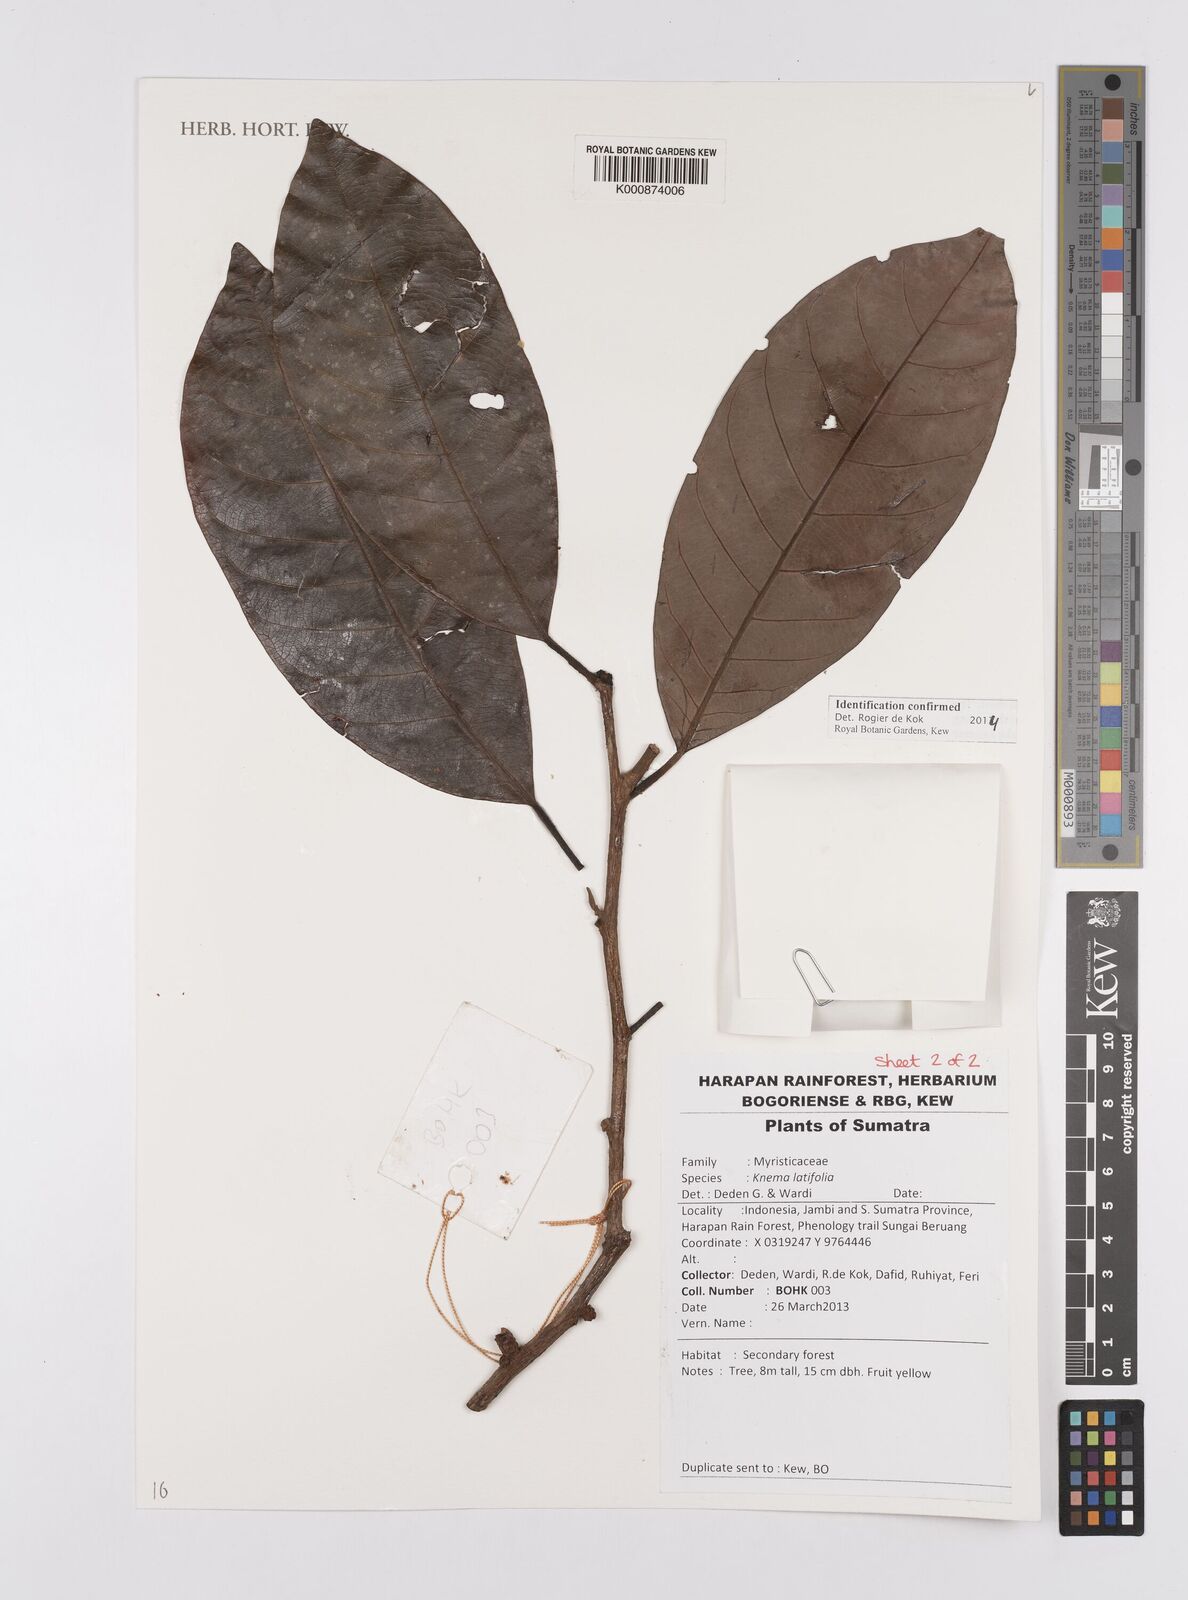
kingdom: Plantae
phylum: Tracheophyta
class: Magnoliopsida
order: Magnoliales
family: Myristicaceae
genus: Knema
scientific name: Knema latifolia
